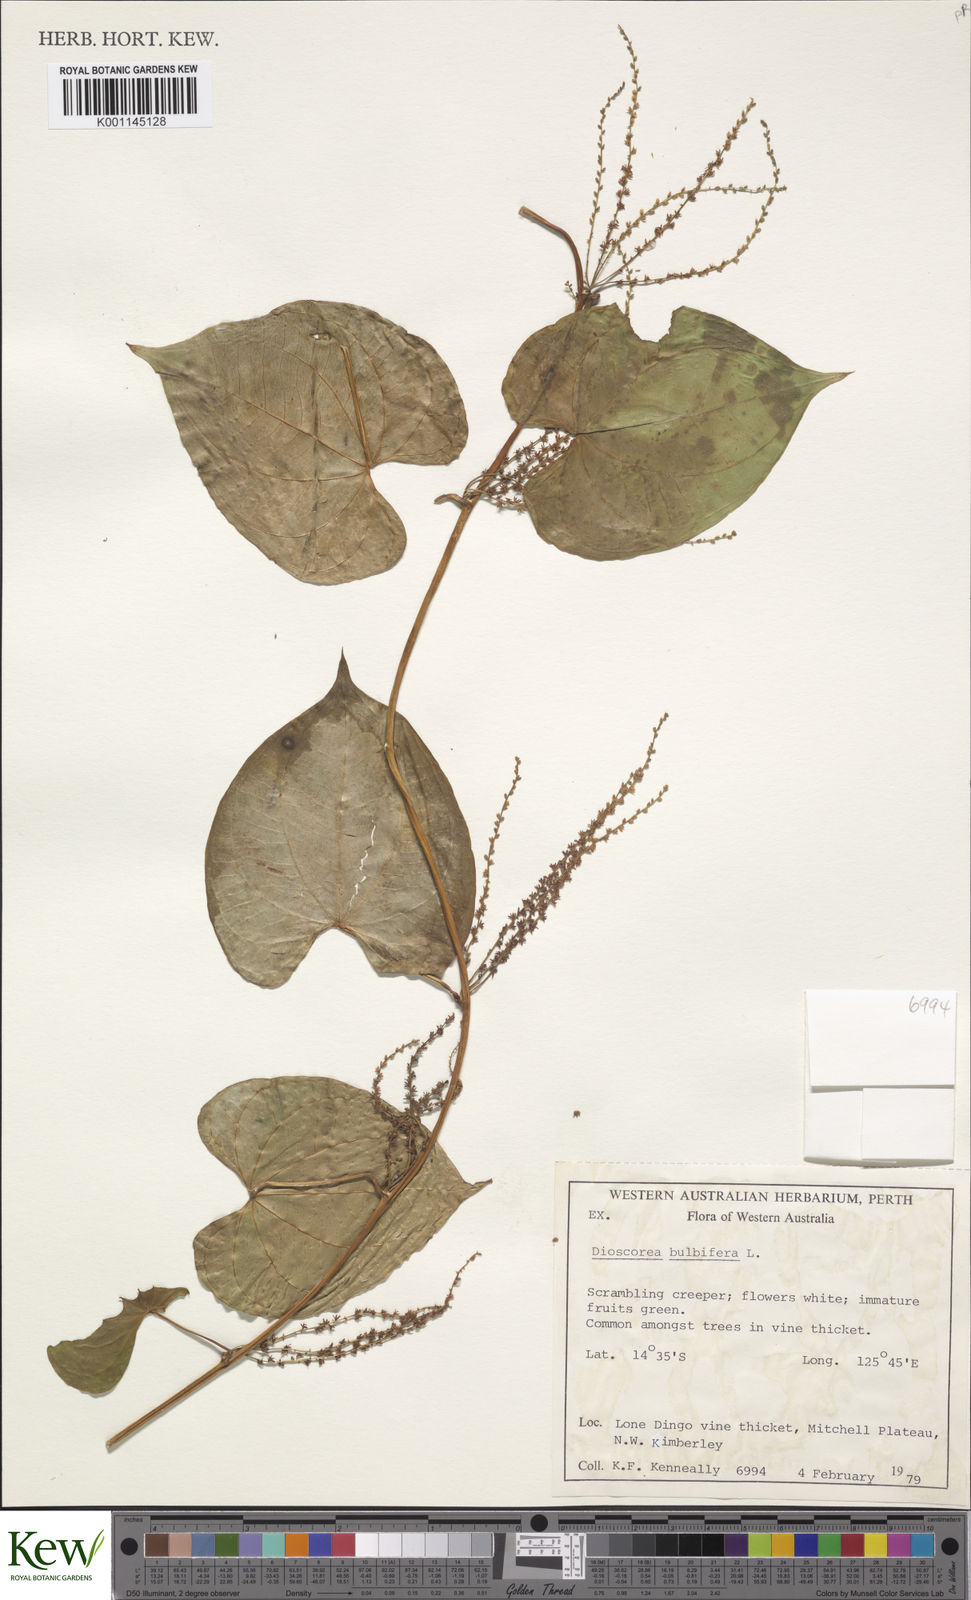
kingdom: Plantae
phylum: Tracheophyta
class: Liliopsida
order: Dioscoreales
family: Dioscoreaceae
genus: Dioscorea
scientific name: Dioscorea bulbifera
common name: Air yam
